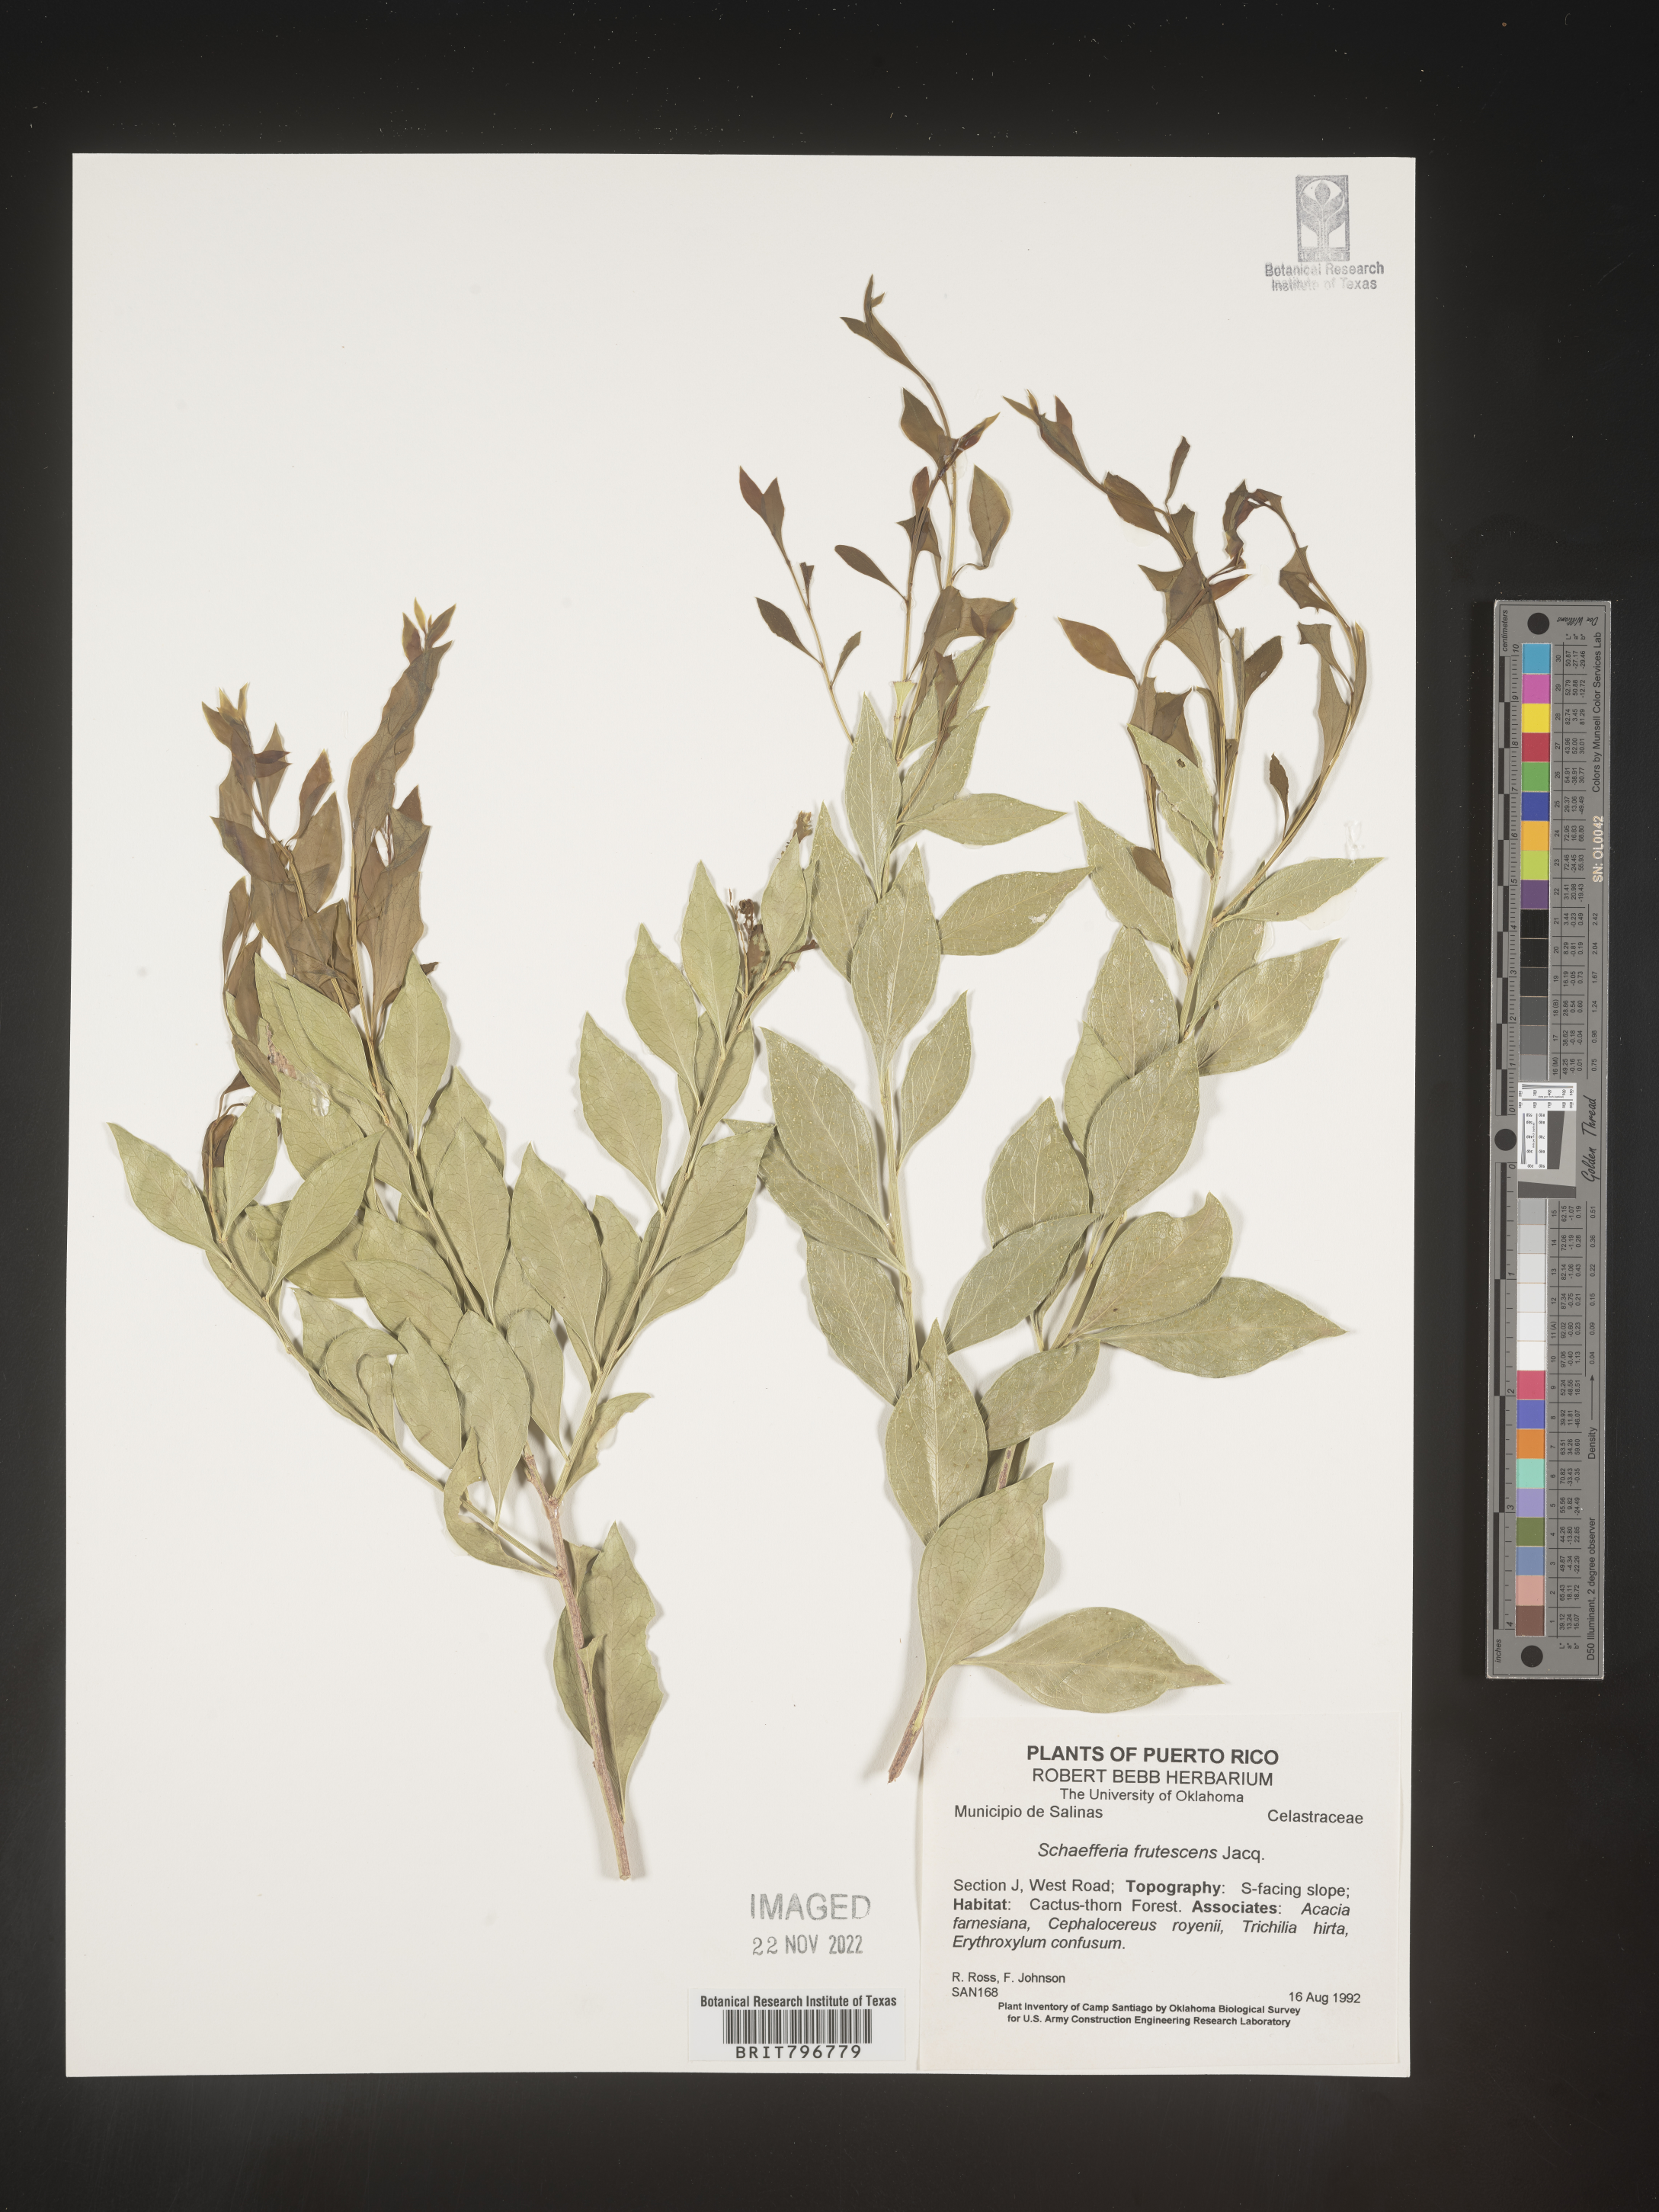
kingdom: Plantae
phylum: Tracheophyta
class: Magnoliopsida
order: Celastrales
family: Celastraceae
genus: Schaefferia
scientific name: Schaefferia
